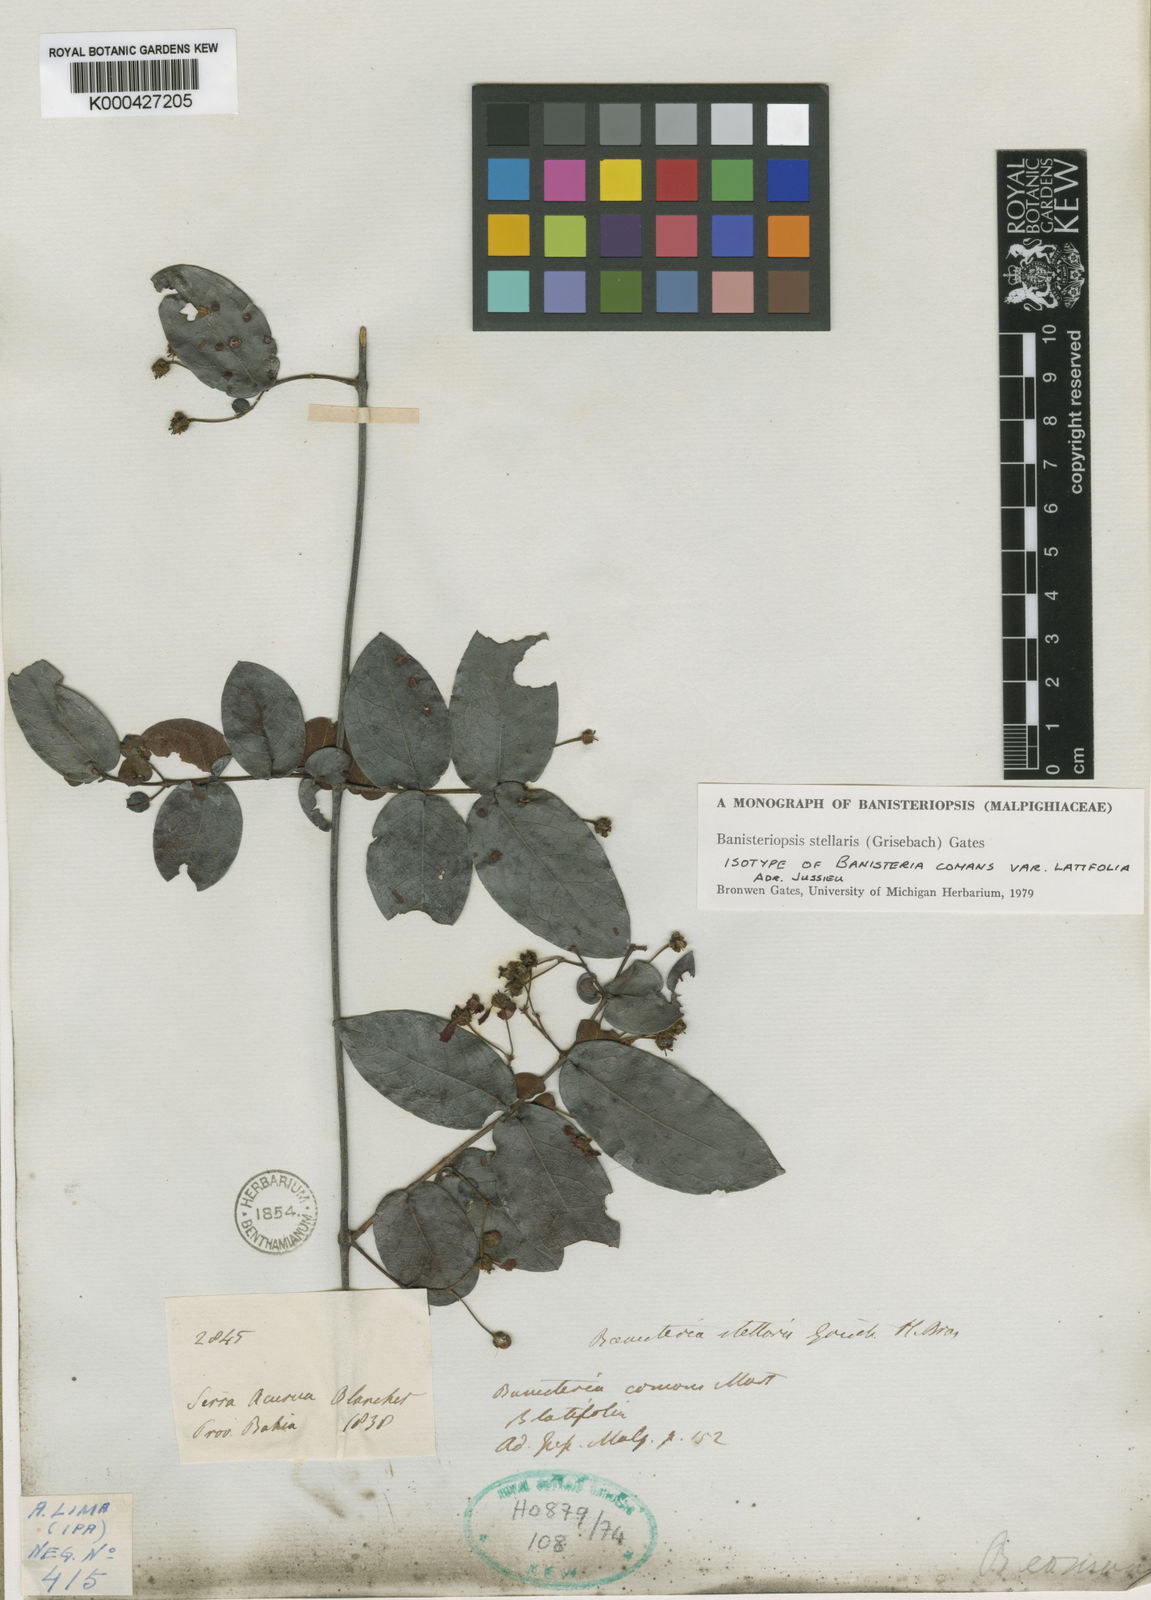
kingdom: Plantae
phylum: Tracheophyta
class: Magnoliopsida
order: Malpighiales
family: Malpighiaceae
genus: Banisteriopsis
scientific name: Banisteriopsis stellaris
